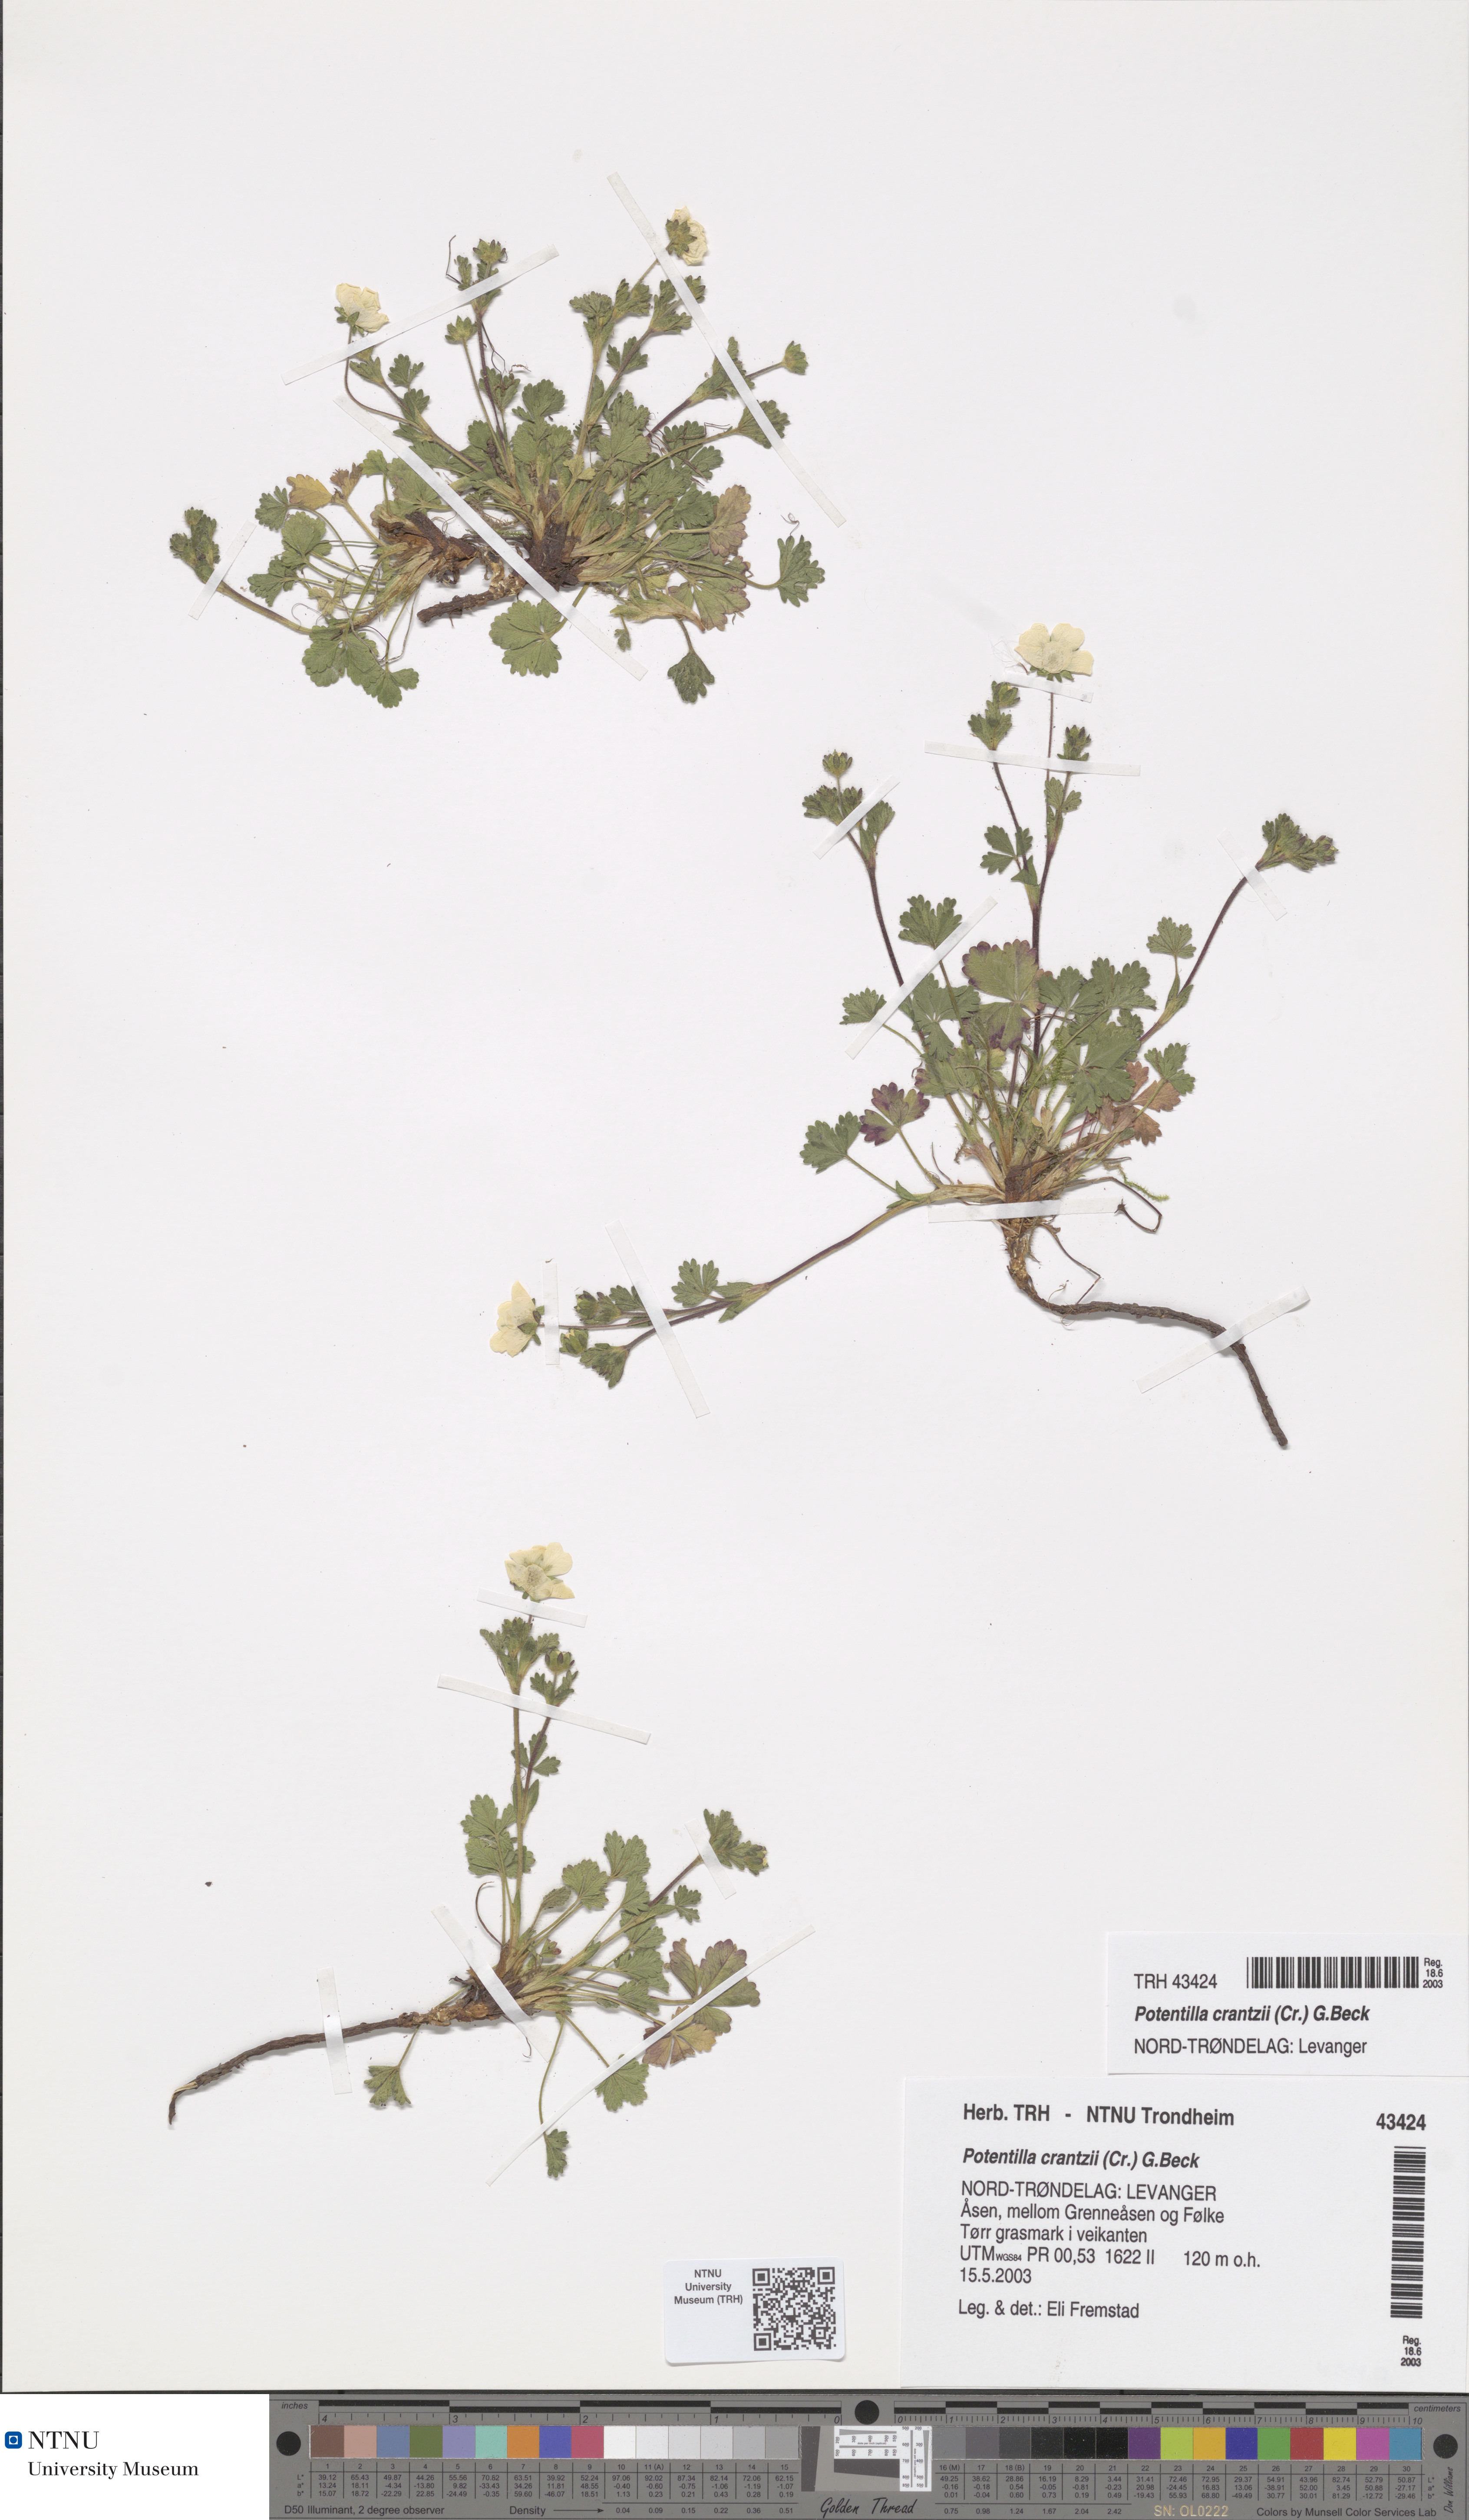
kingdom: Plantae
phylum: Tracheophyta
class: Magnoliopsida
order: Rosales
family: Rosaceae
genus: Potentilla
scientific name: Potentilla crantzii
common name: Alpine cinquefoil
